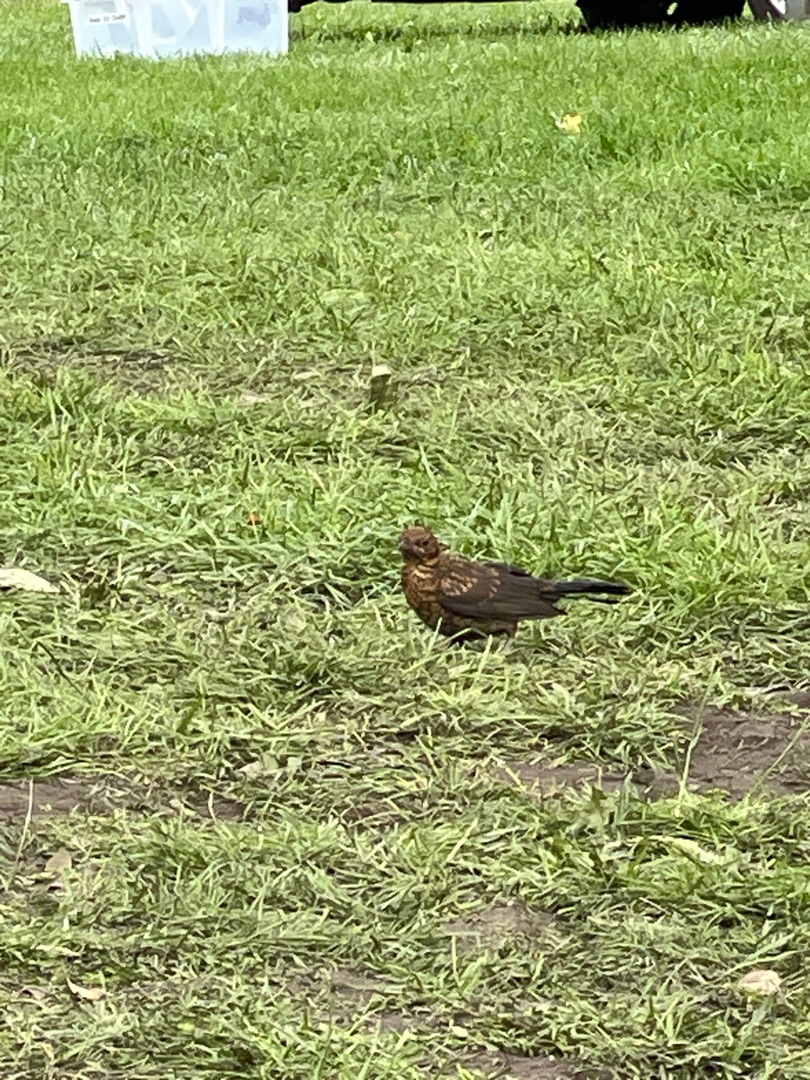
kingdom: Animalia
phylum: Chordata
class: Aves
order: Passeriformes
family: Turdidae
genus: Turdus
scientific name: Turdus merula
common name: Solsort
